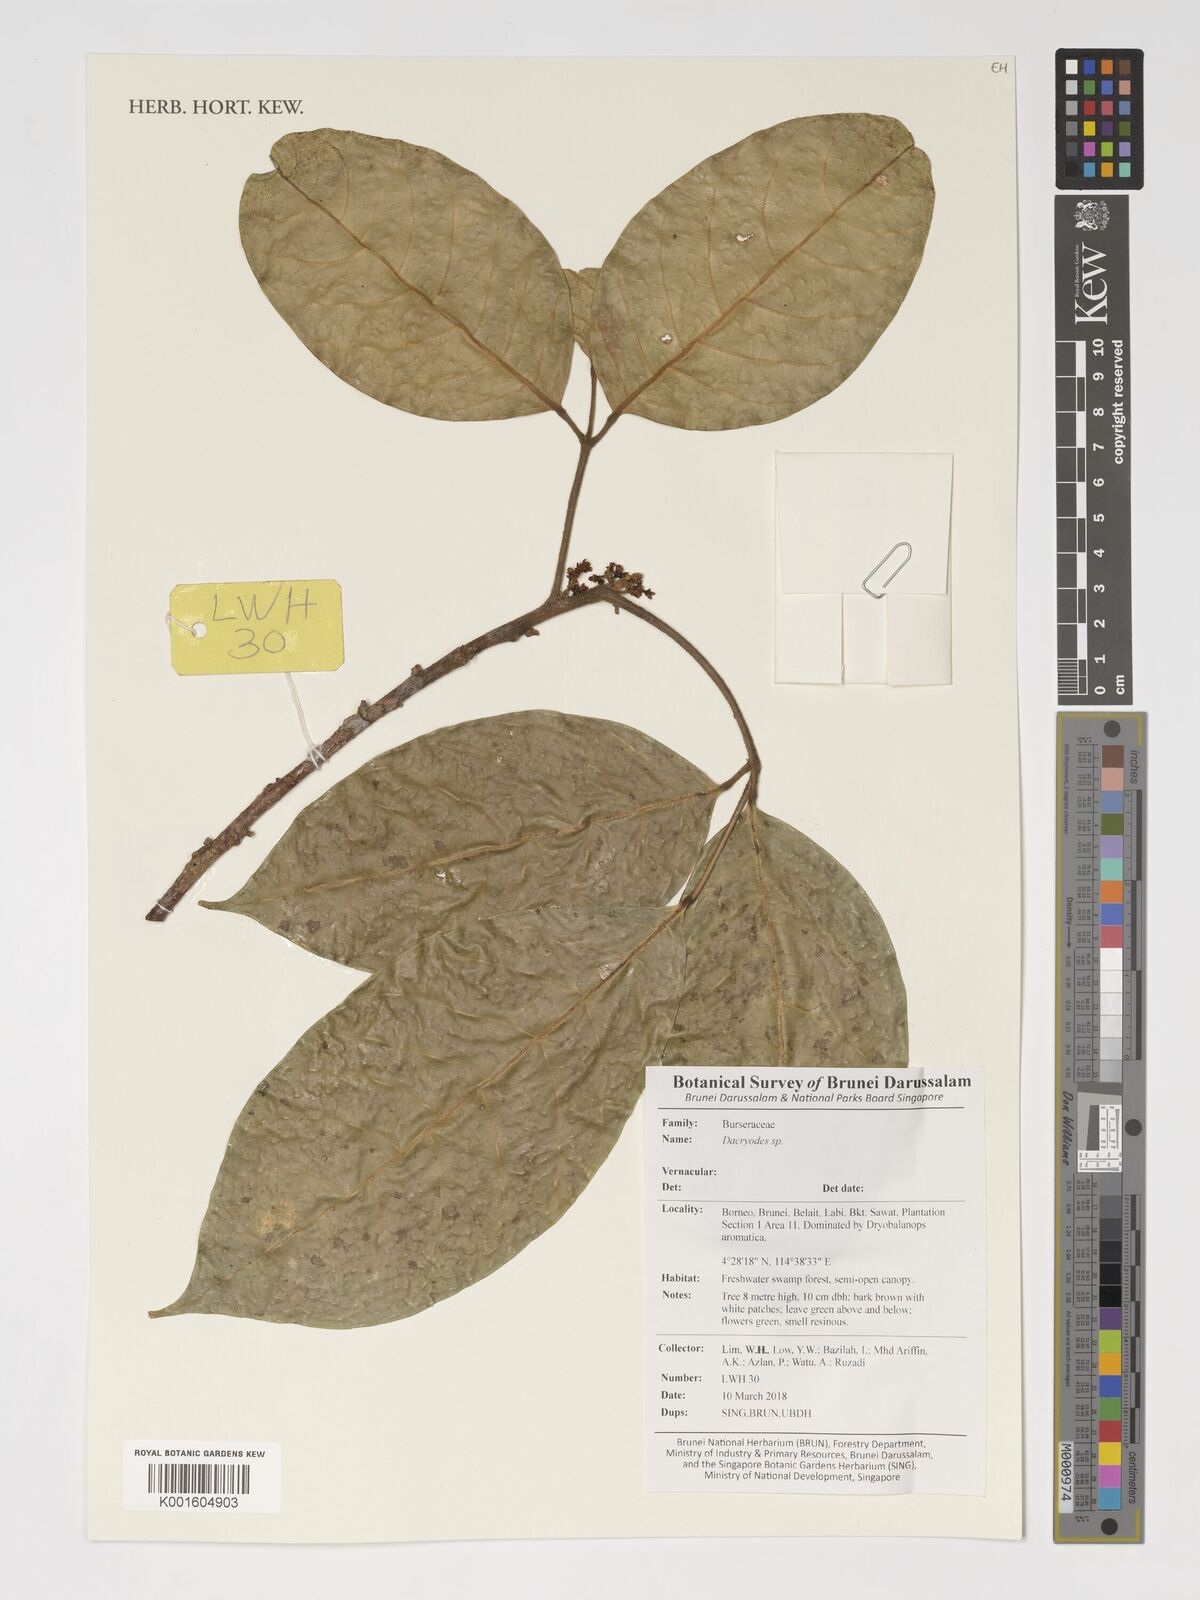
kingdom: Plantae
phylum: Tracheophyta
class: Magnoliopsida
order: Sapindales
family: Burseraceae
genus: Dacryodes
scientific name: Dacryodes
